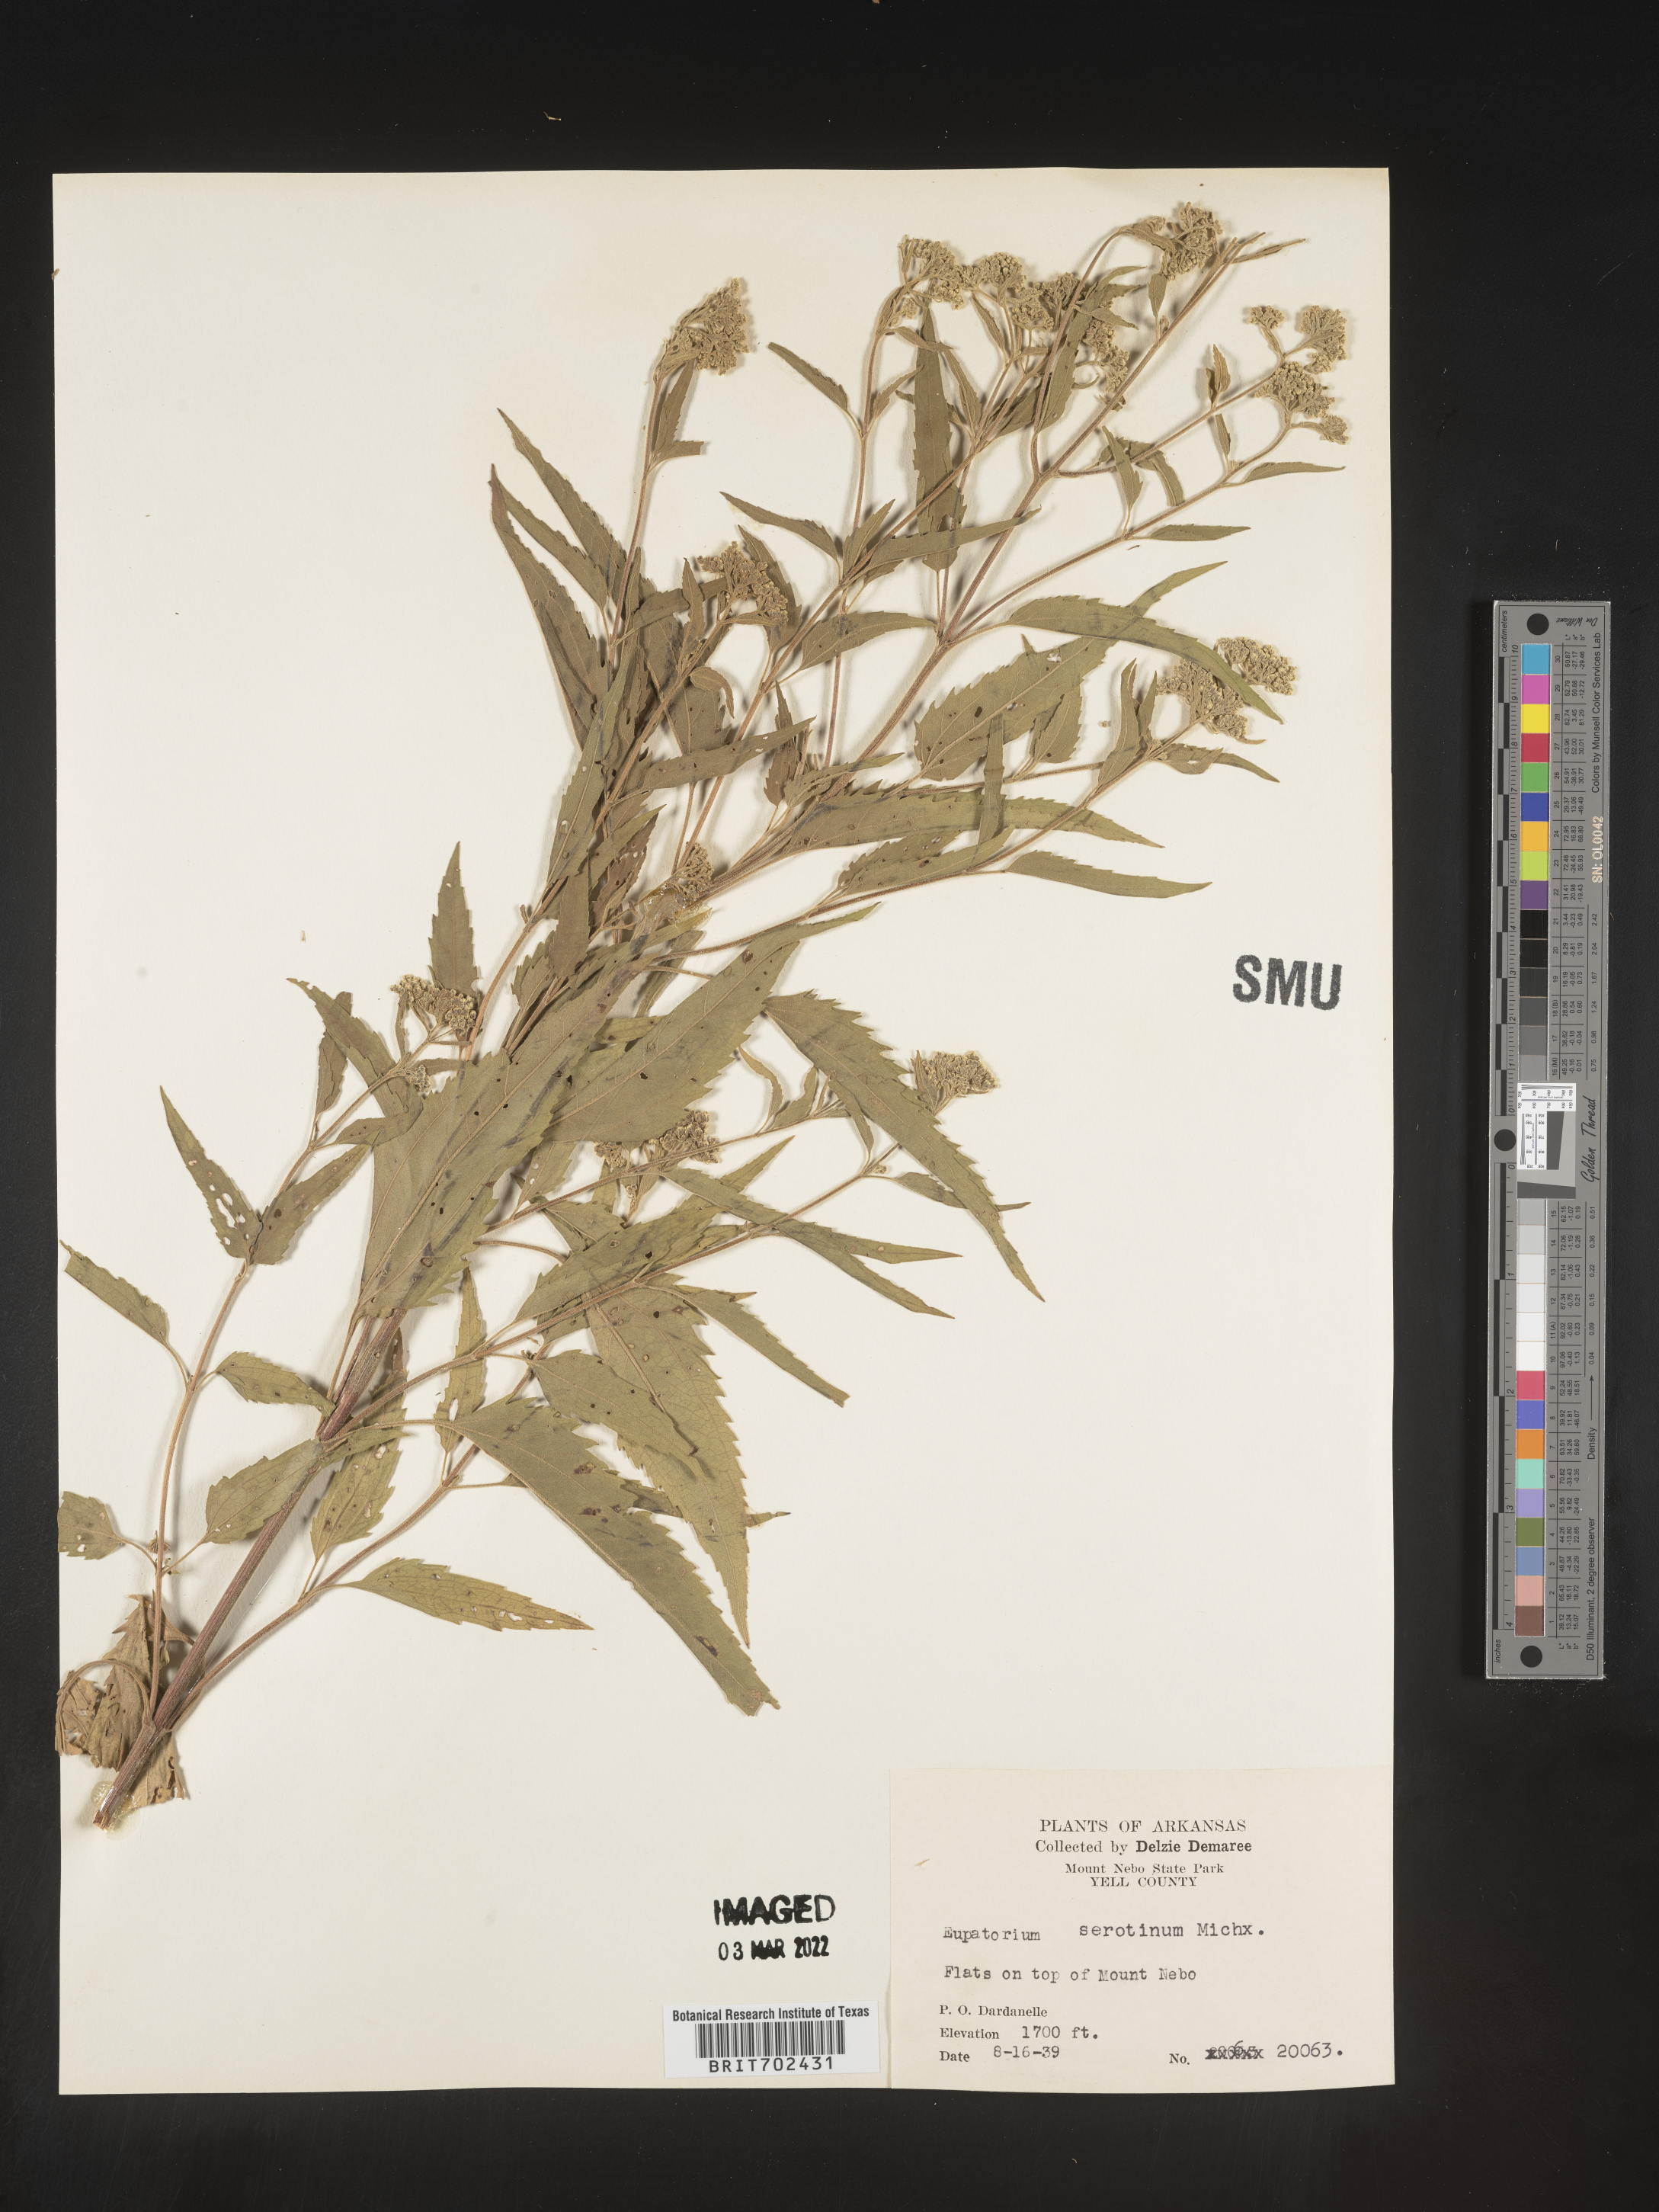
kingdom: Plantae
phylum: Tracheophyta
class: Magnoliopsida
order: Asterales
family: Asteraceae
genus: Eupatorium
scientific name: Eupatorium serotinum
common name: Late boneset
